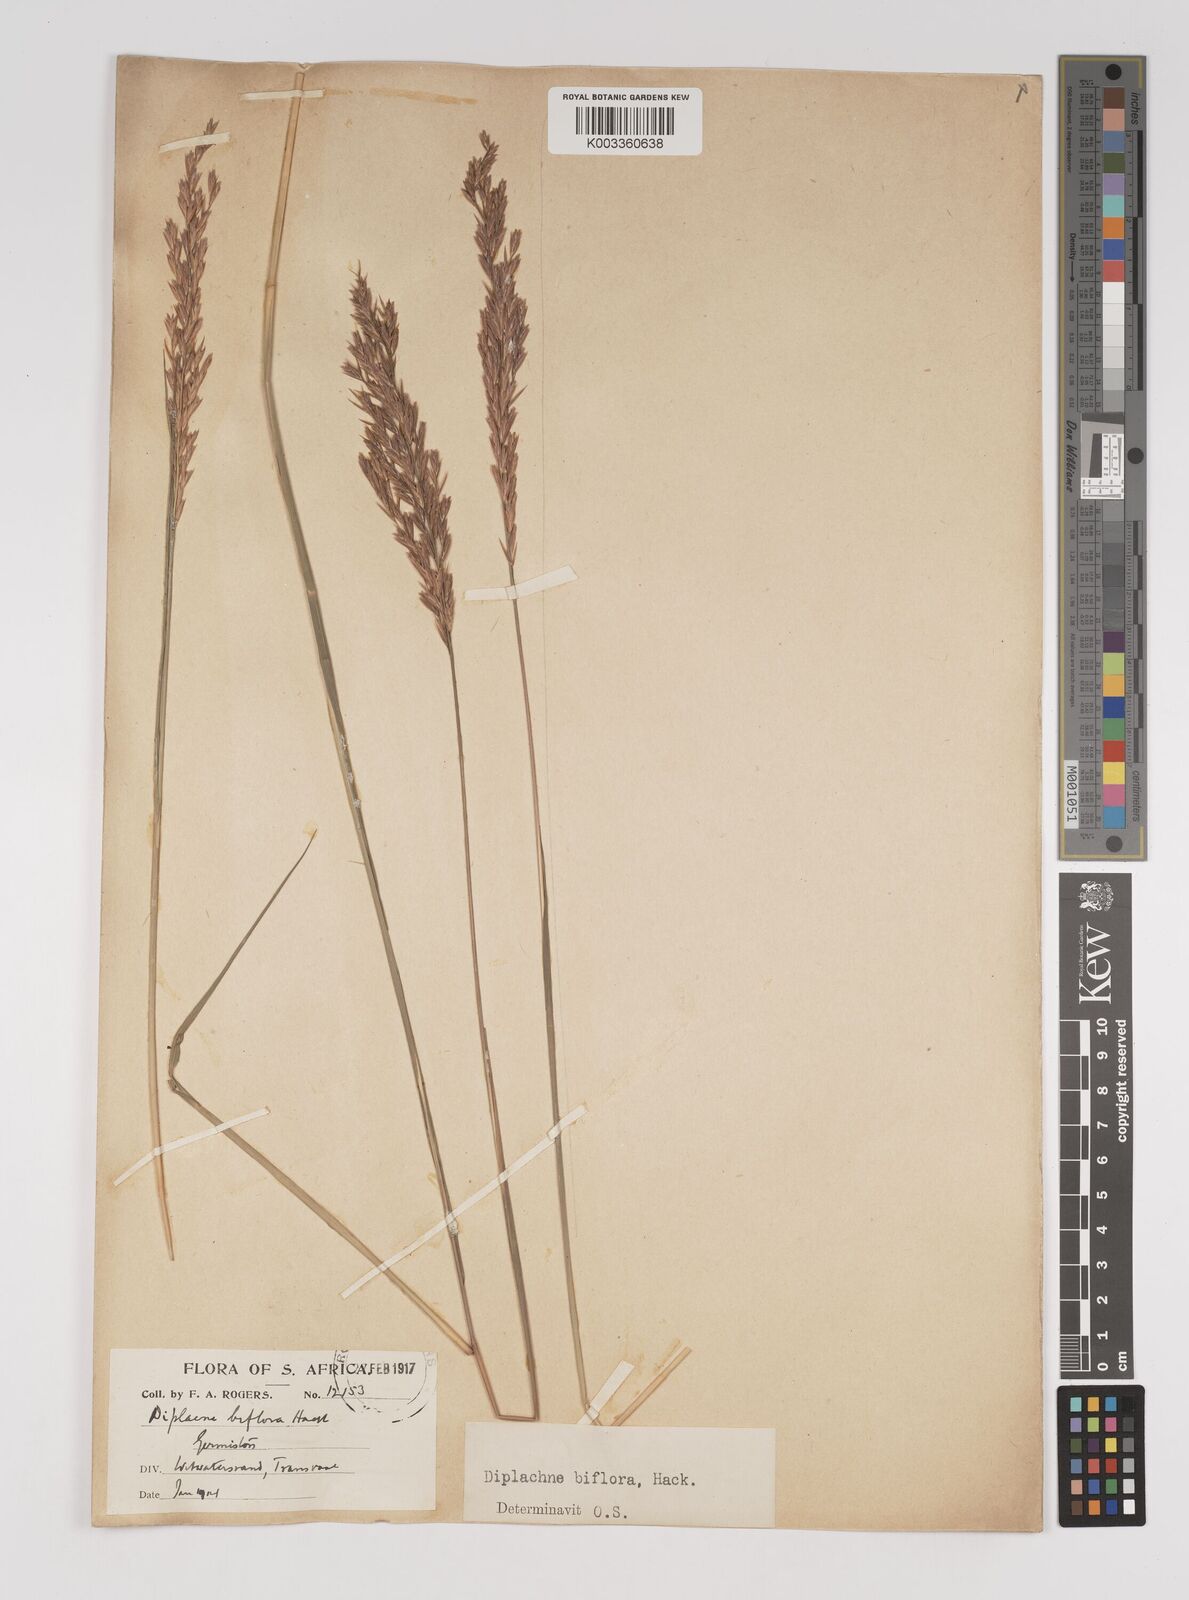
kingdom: Plantae
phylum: Tracheophyta
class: Liliopsida
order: Poales
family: Poaceae
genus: Bewsia
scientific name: Bewsia biflora
